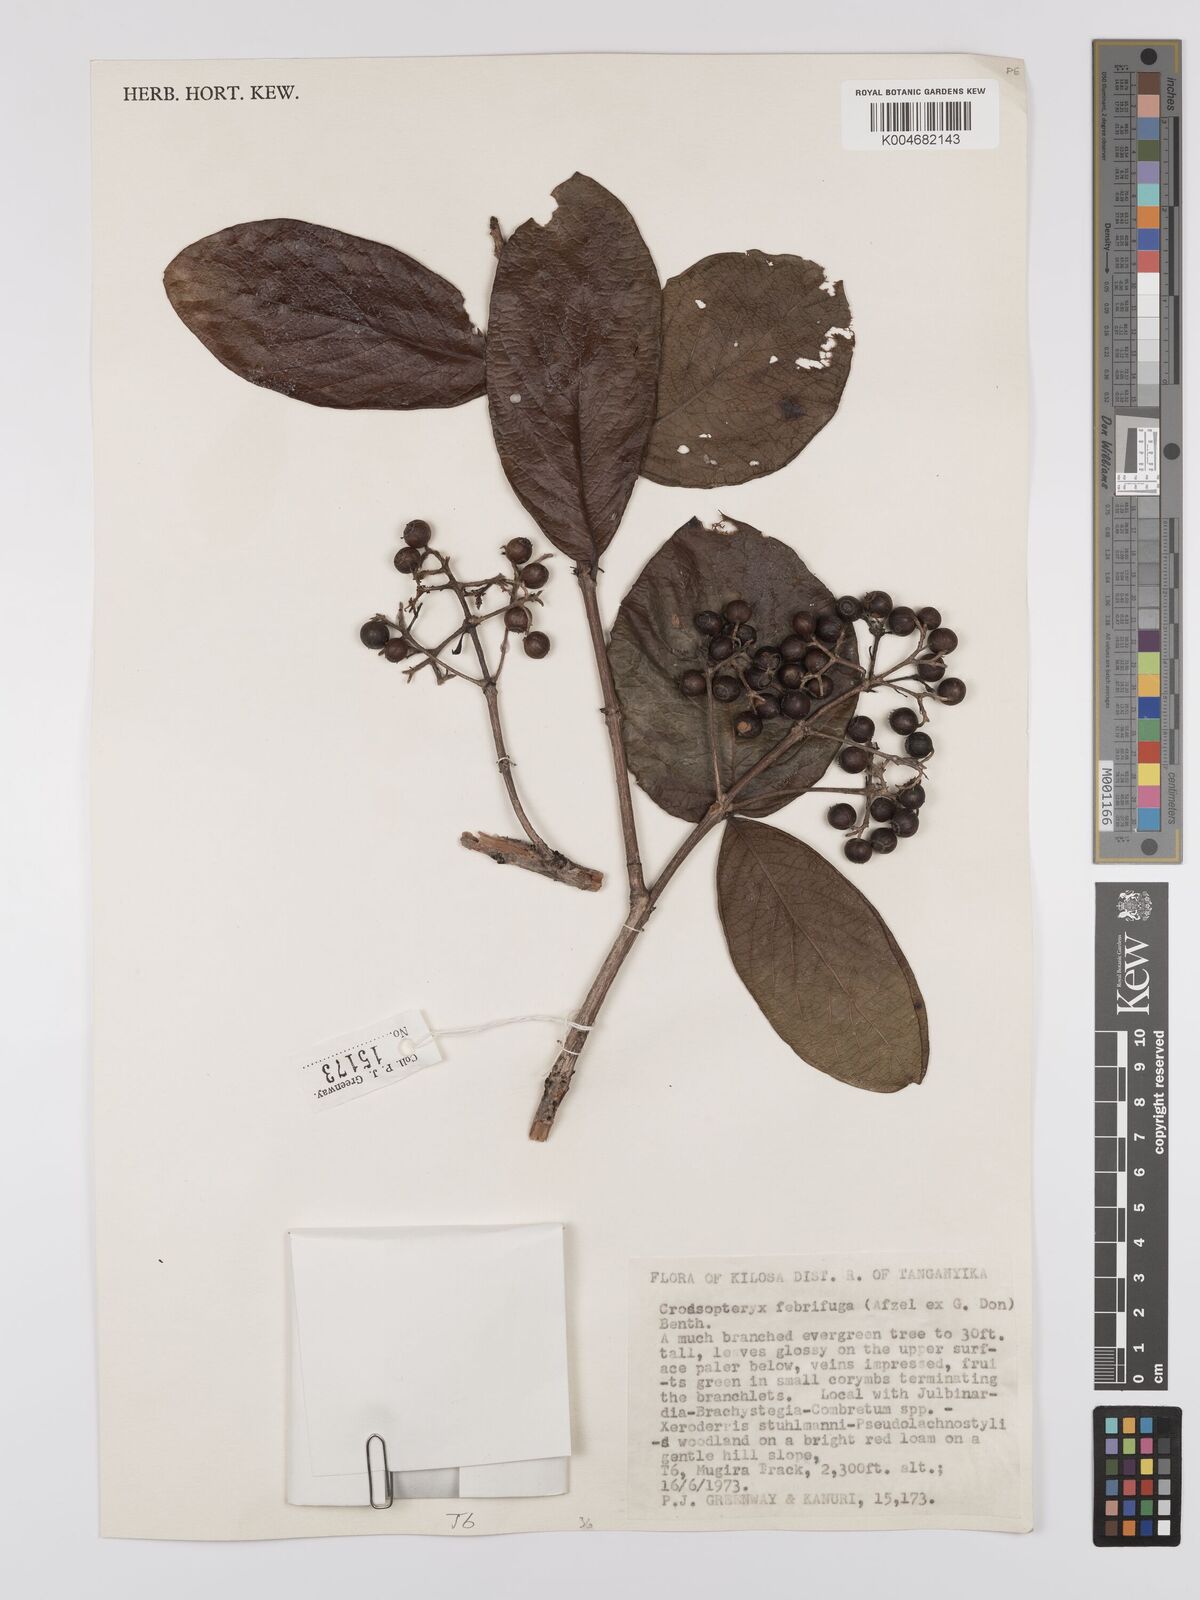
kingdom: Plantae
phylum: Tracheophyta
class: Magnoliopsida
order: Gentianales
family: Rubiaceae
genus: Crossopteryx
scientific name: Crossopteryx febrifuga
